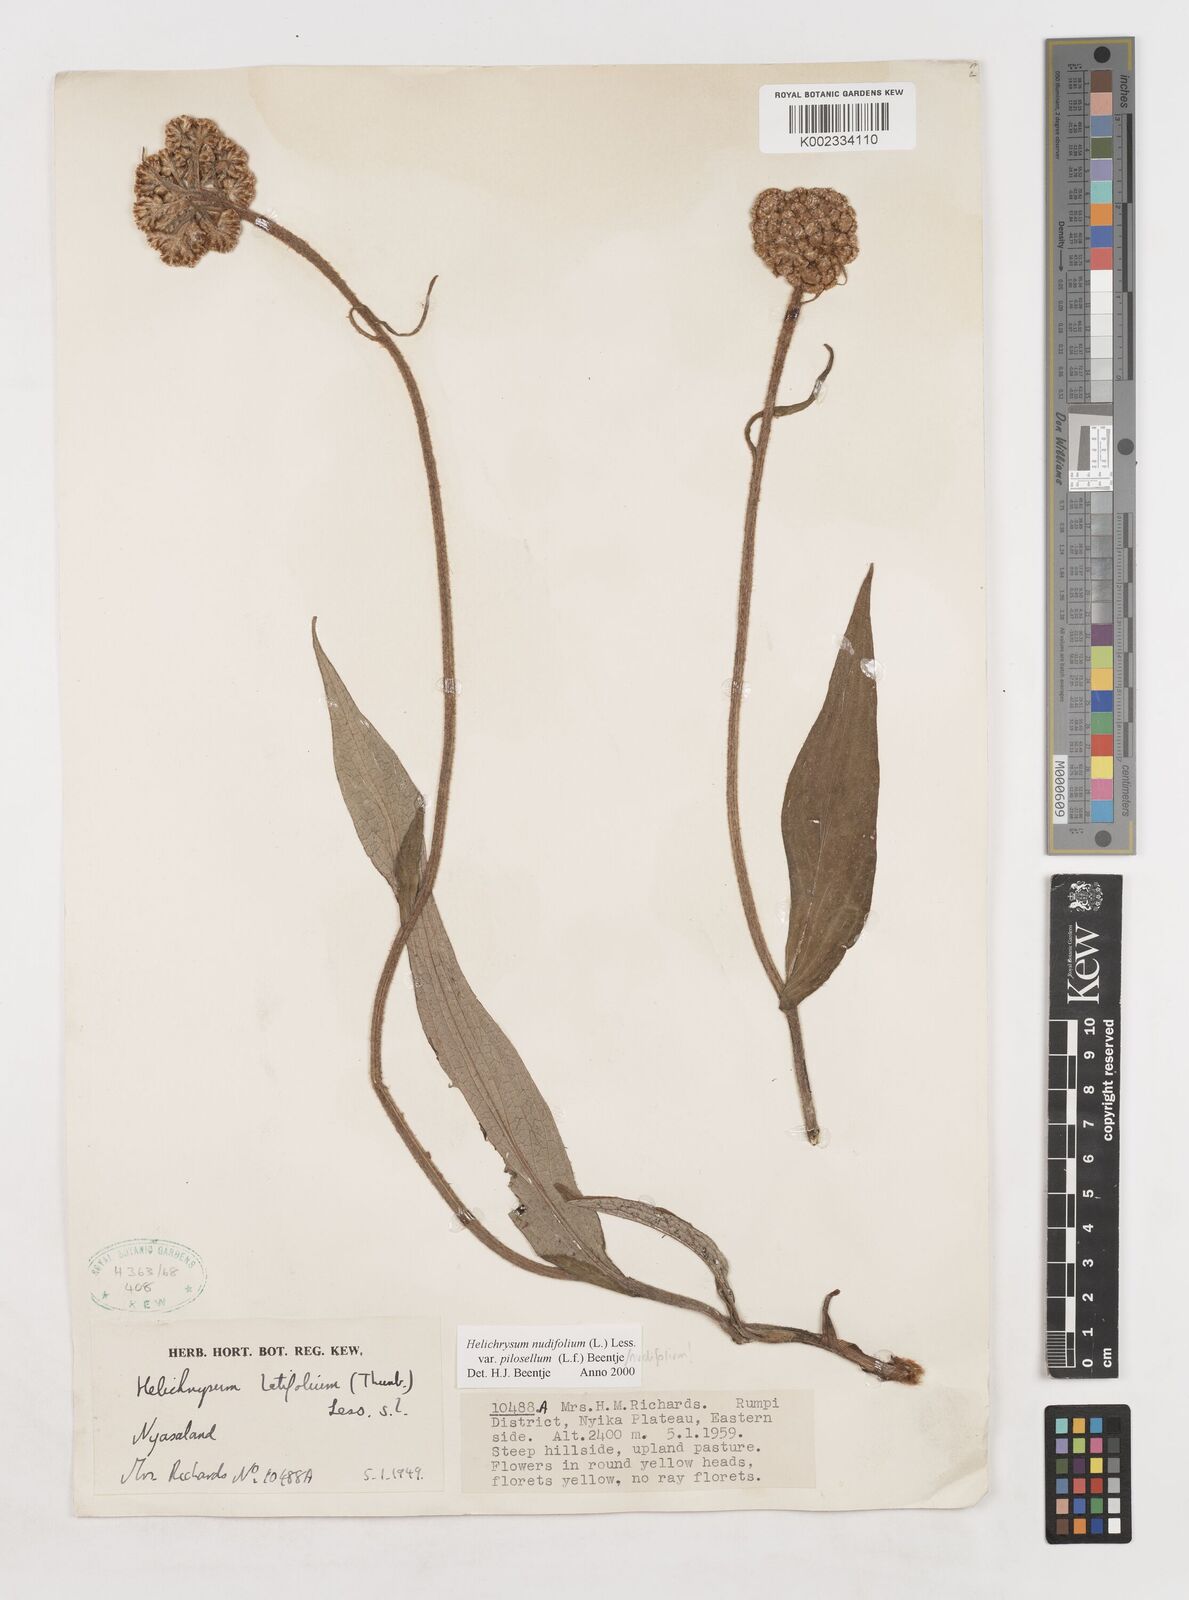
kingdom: Plantae
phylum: Tracheophyta
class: Magnoliopsida
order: Asterales
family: Asteraceae
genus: Helichrysum
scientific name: Helichrysum nudifolium
